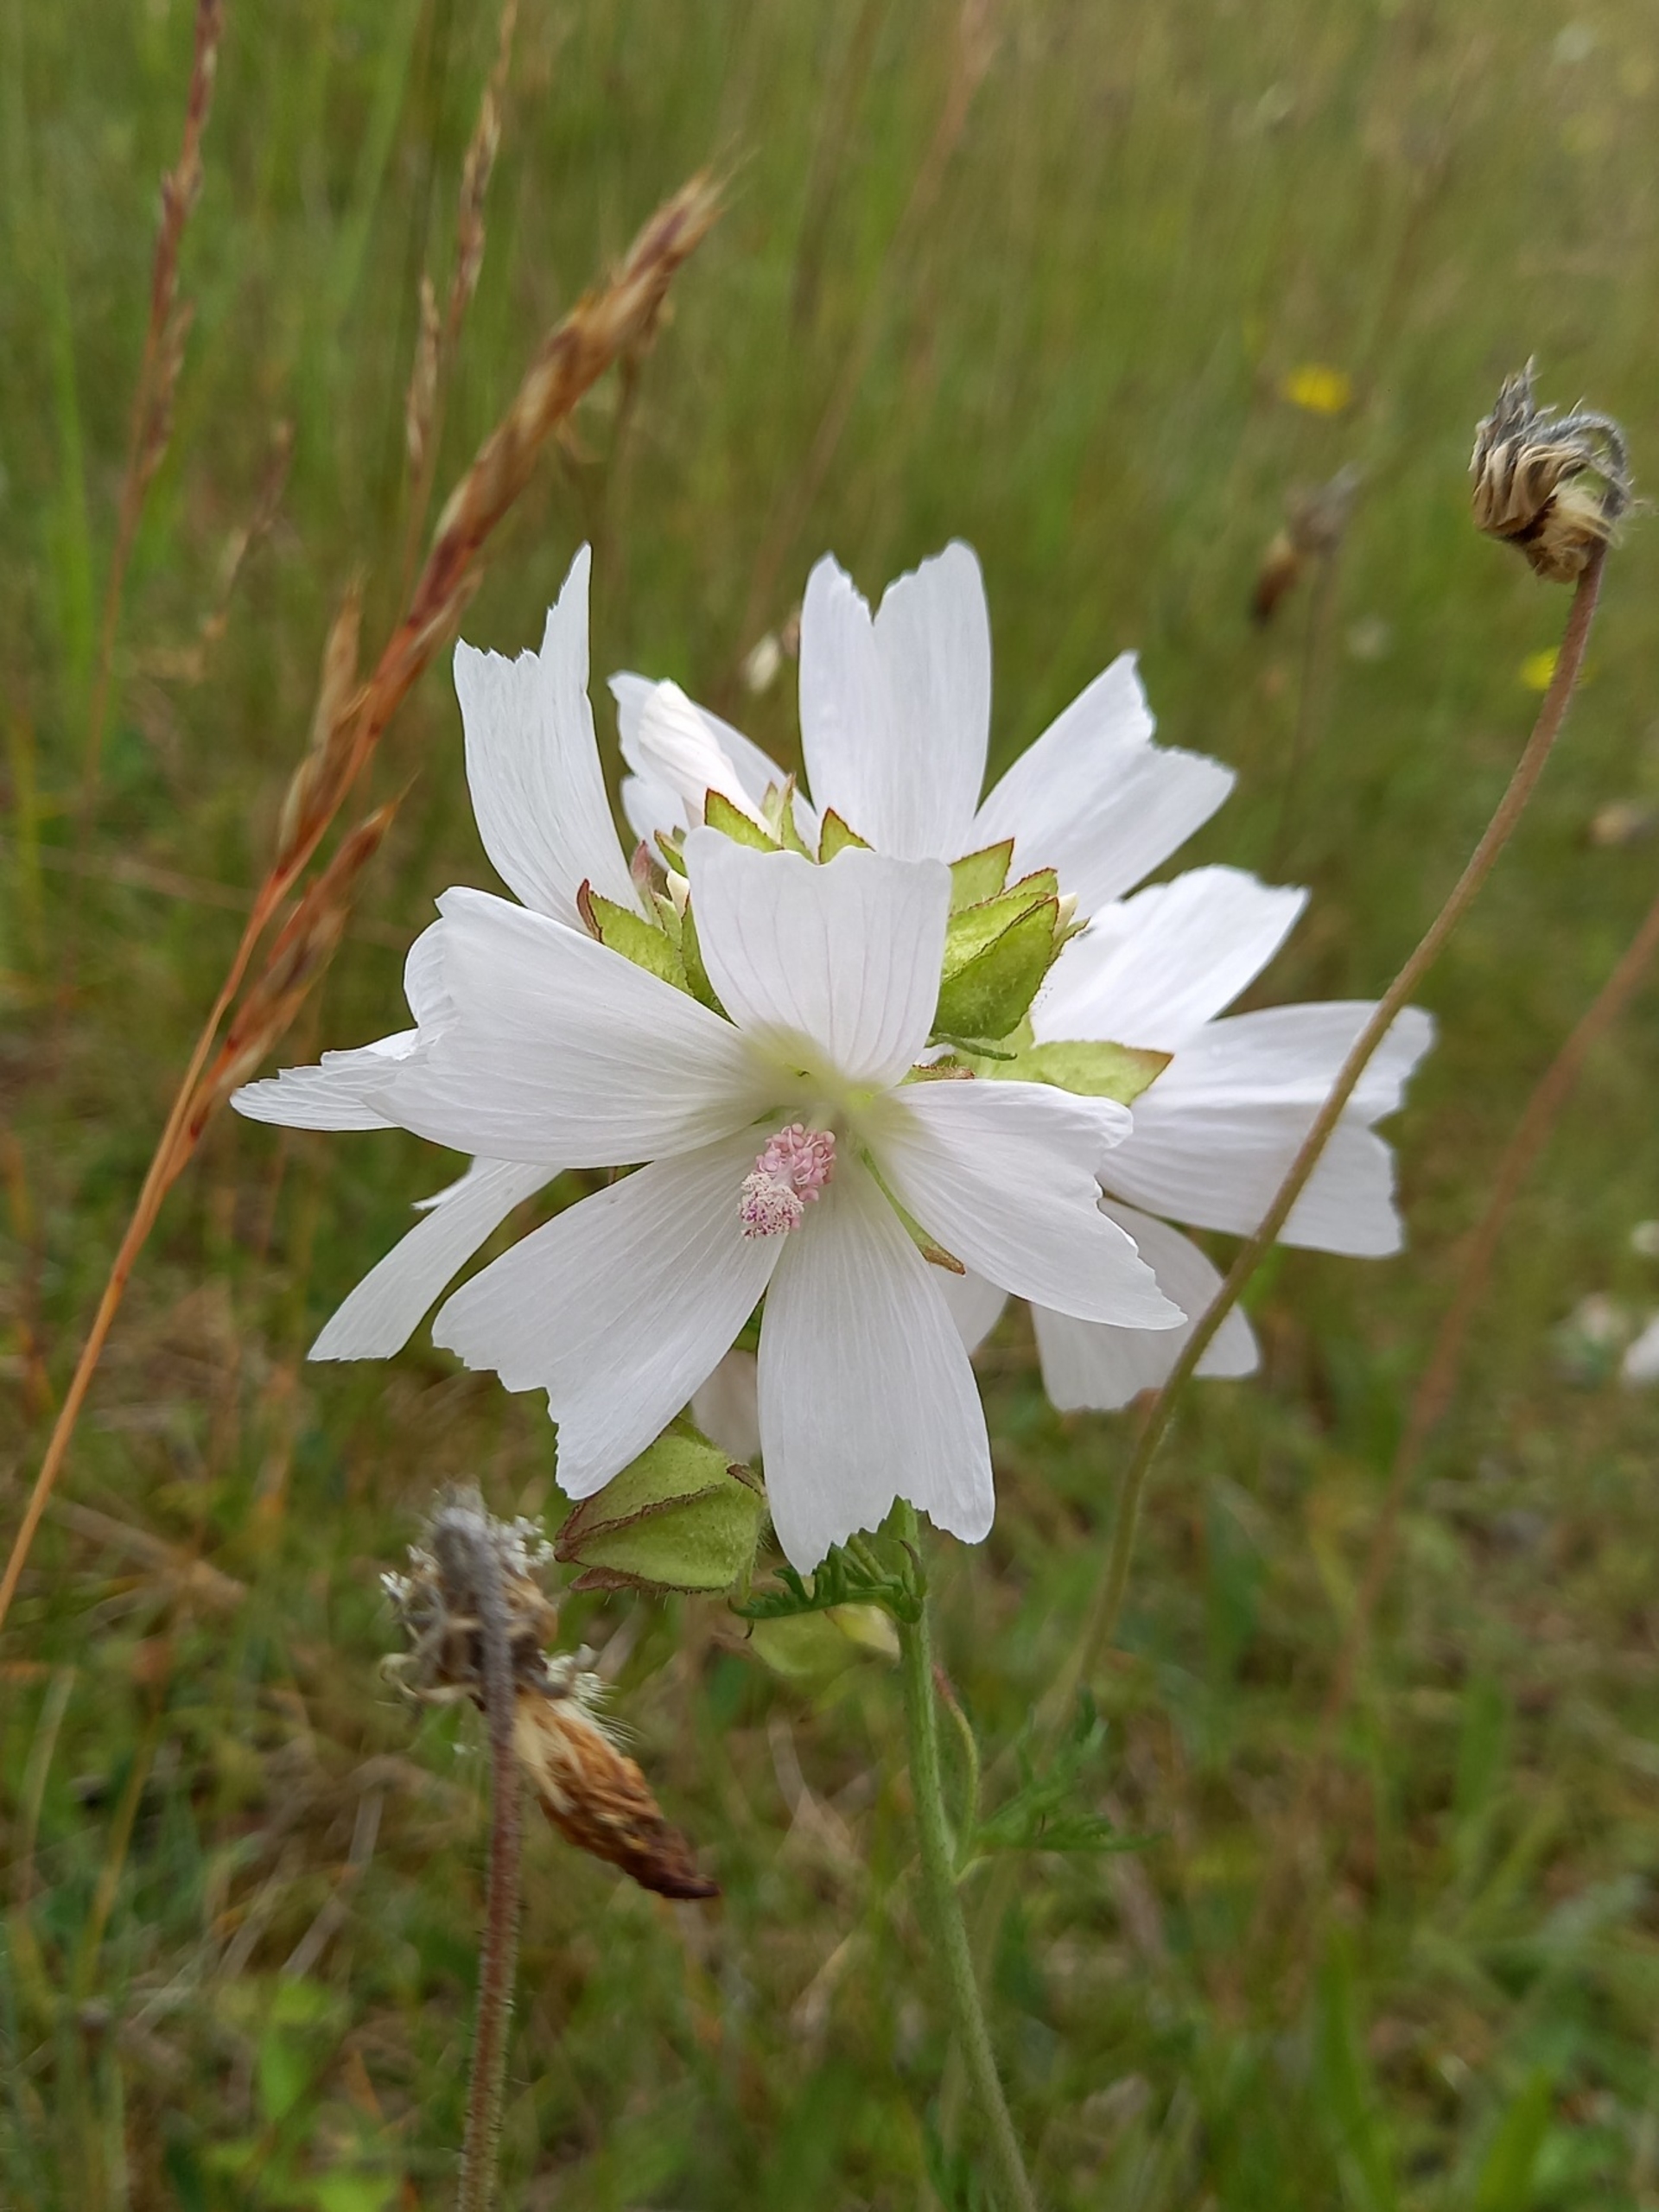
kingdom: Plantae
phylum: Tracheophyta
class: Magnoliopsida
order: Malvales
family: Malvaceae
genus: Malva
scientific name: Malva moschata
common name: Moskus-katost
